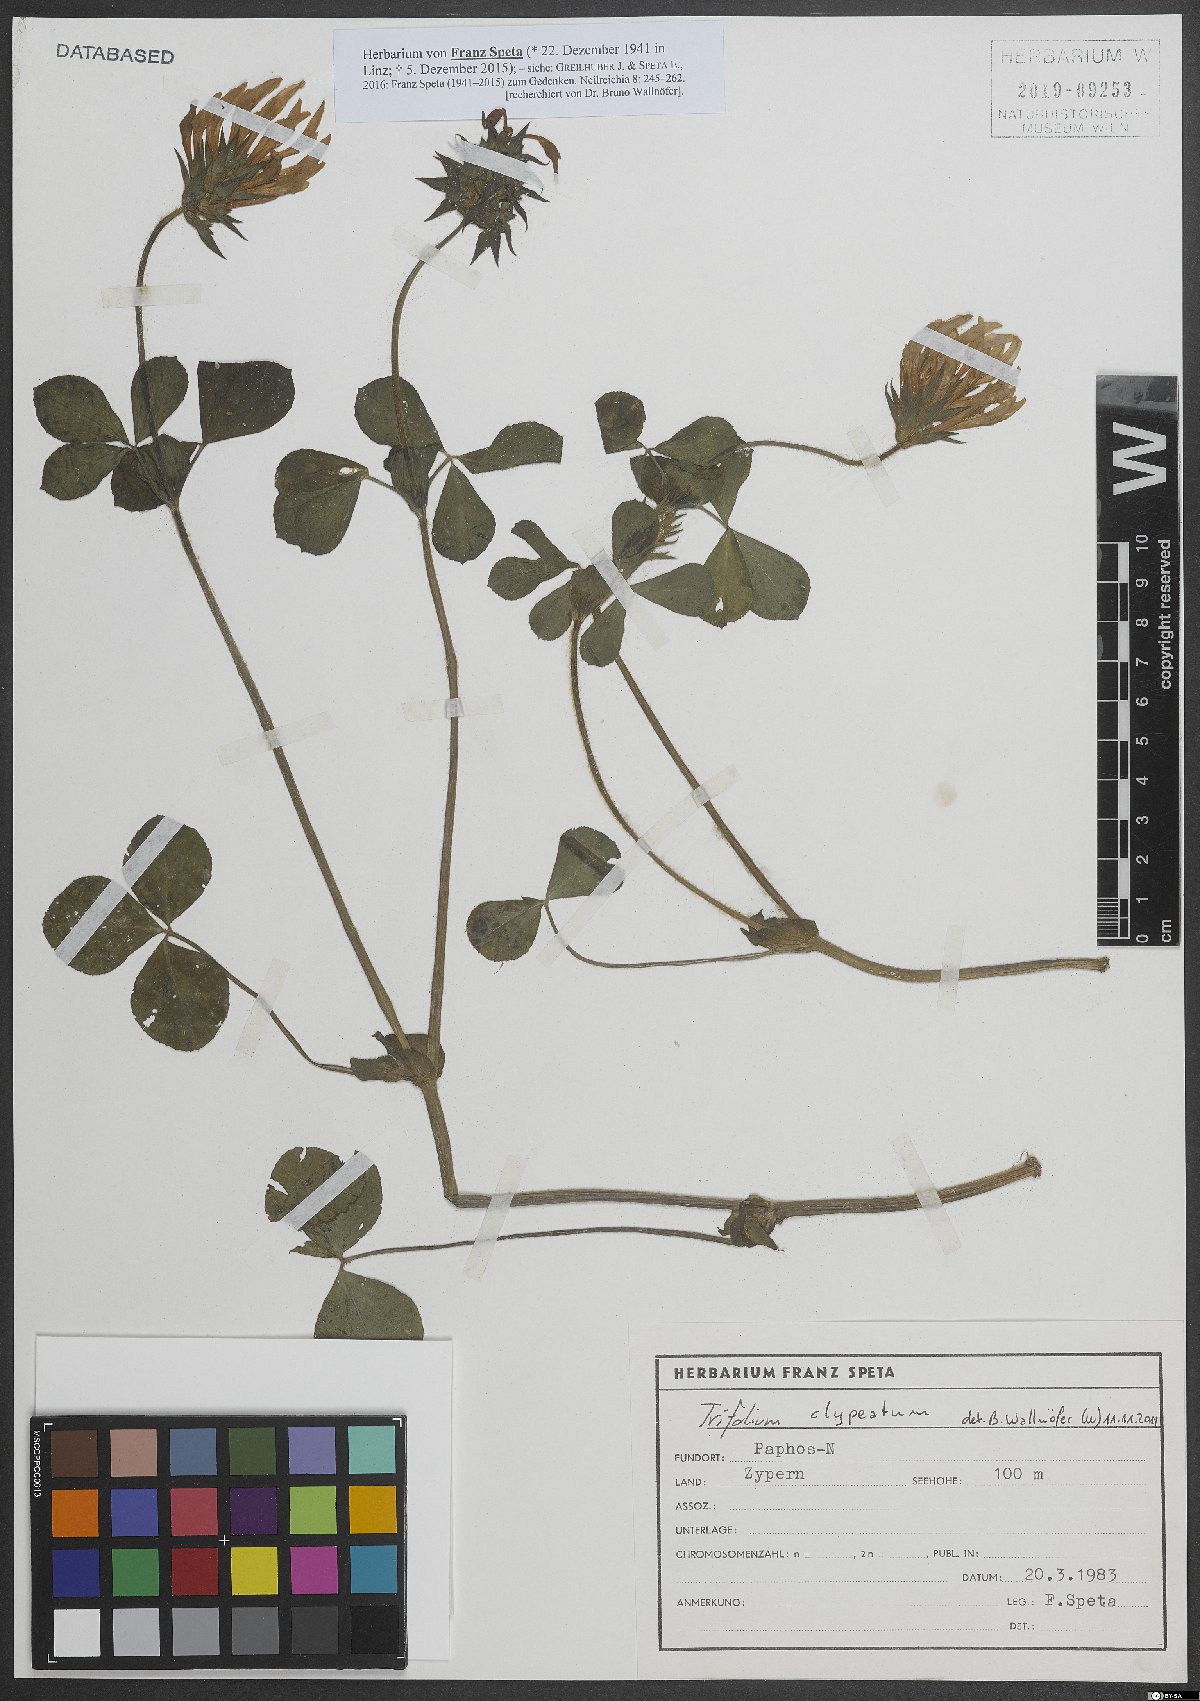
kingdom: Plantae
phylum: Tracheophyta
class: Magnoliopsida
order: Fabales
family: Fabaceae
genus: Trifolium
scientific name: Trifolium clypeatum
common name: Shield clover
